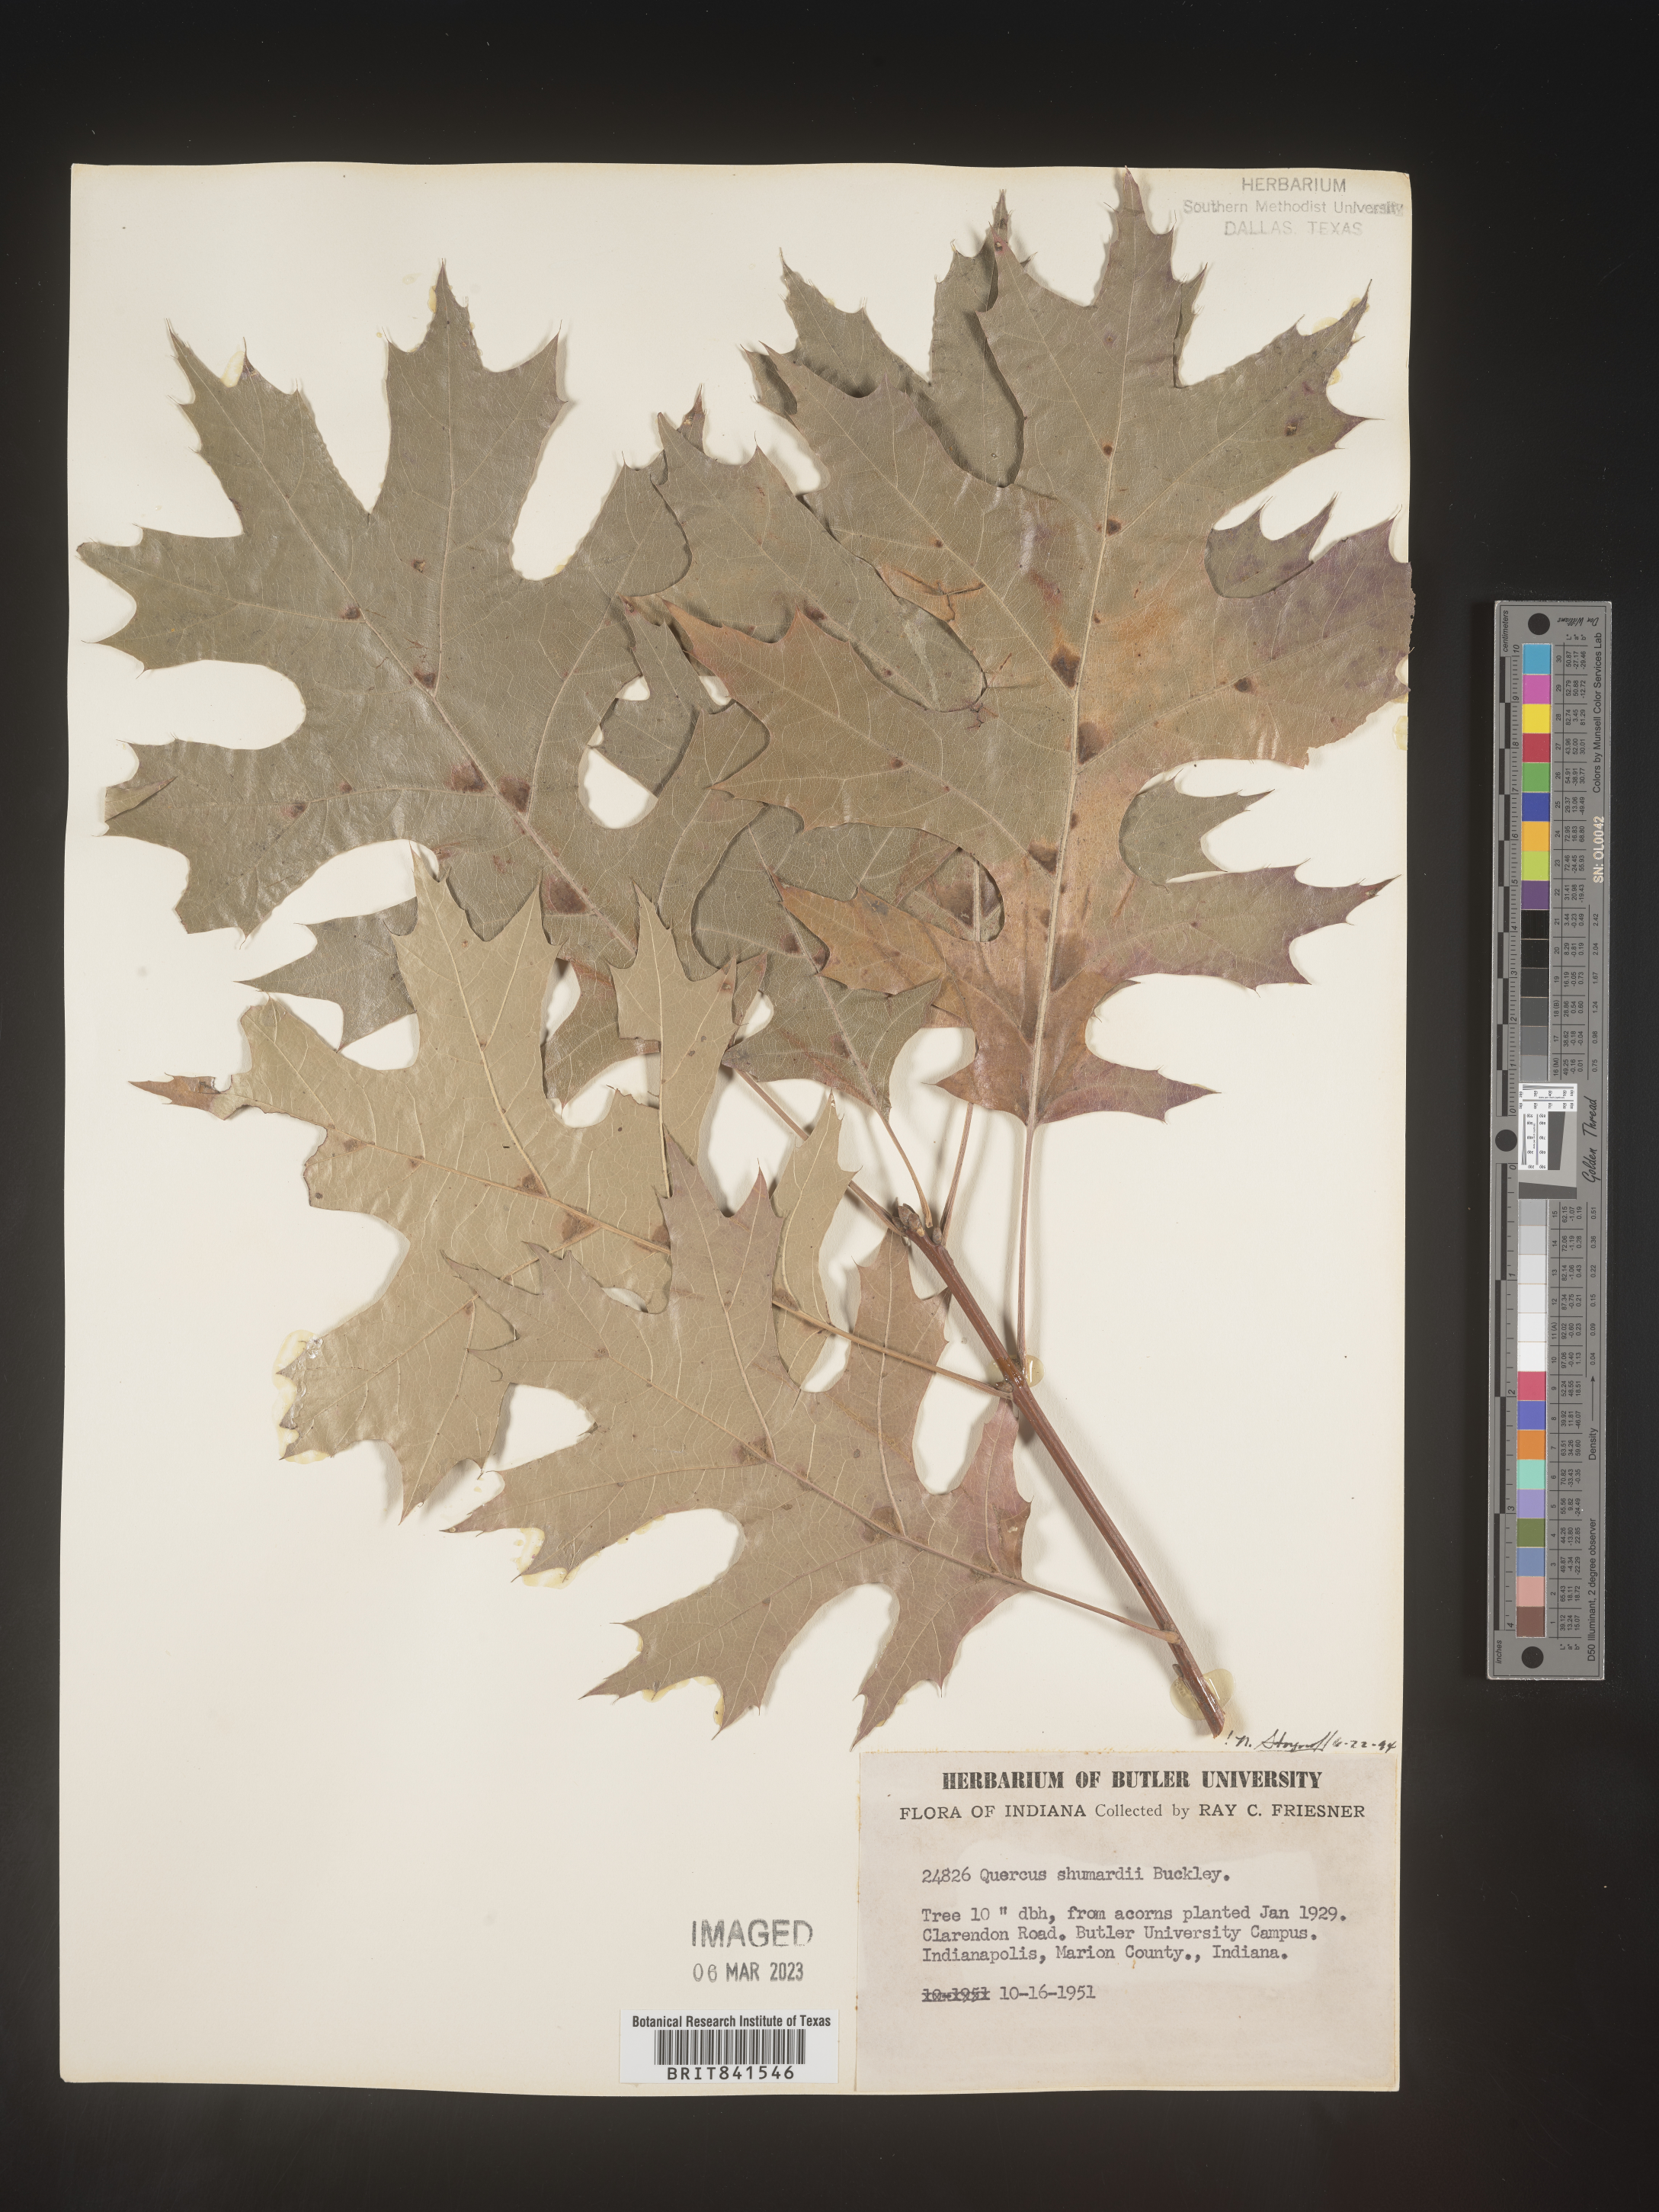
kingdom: Plantae
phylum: Tracheophyta
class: Magnoliopsida
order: Fagales
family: Fagaceae
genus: Quercus
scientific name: Quercus shumardii
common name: Shumard oak
